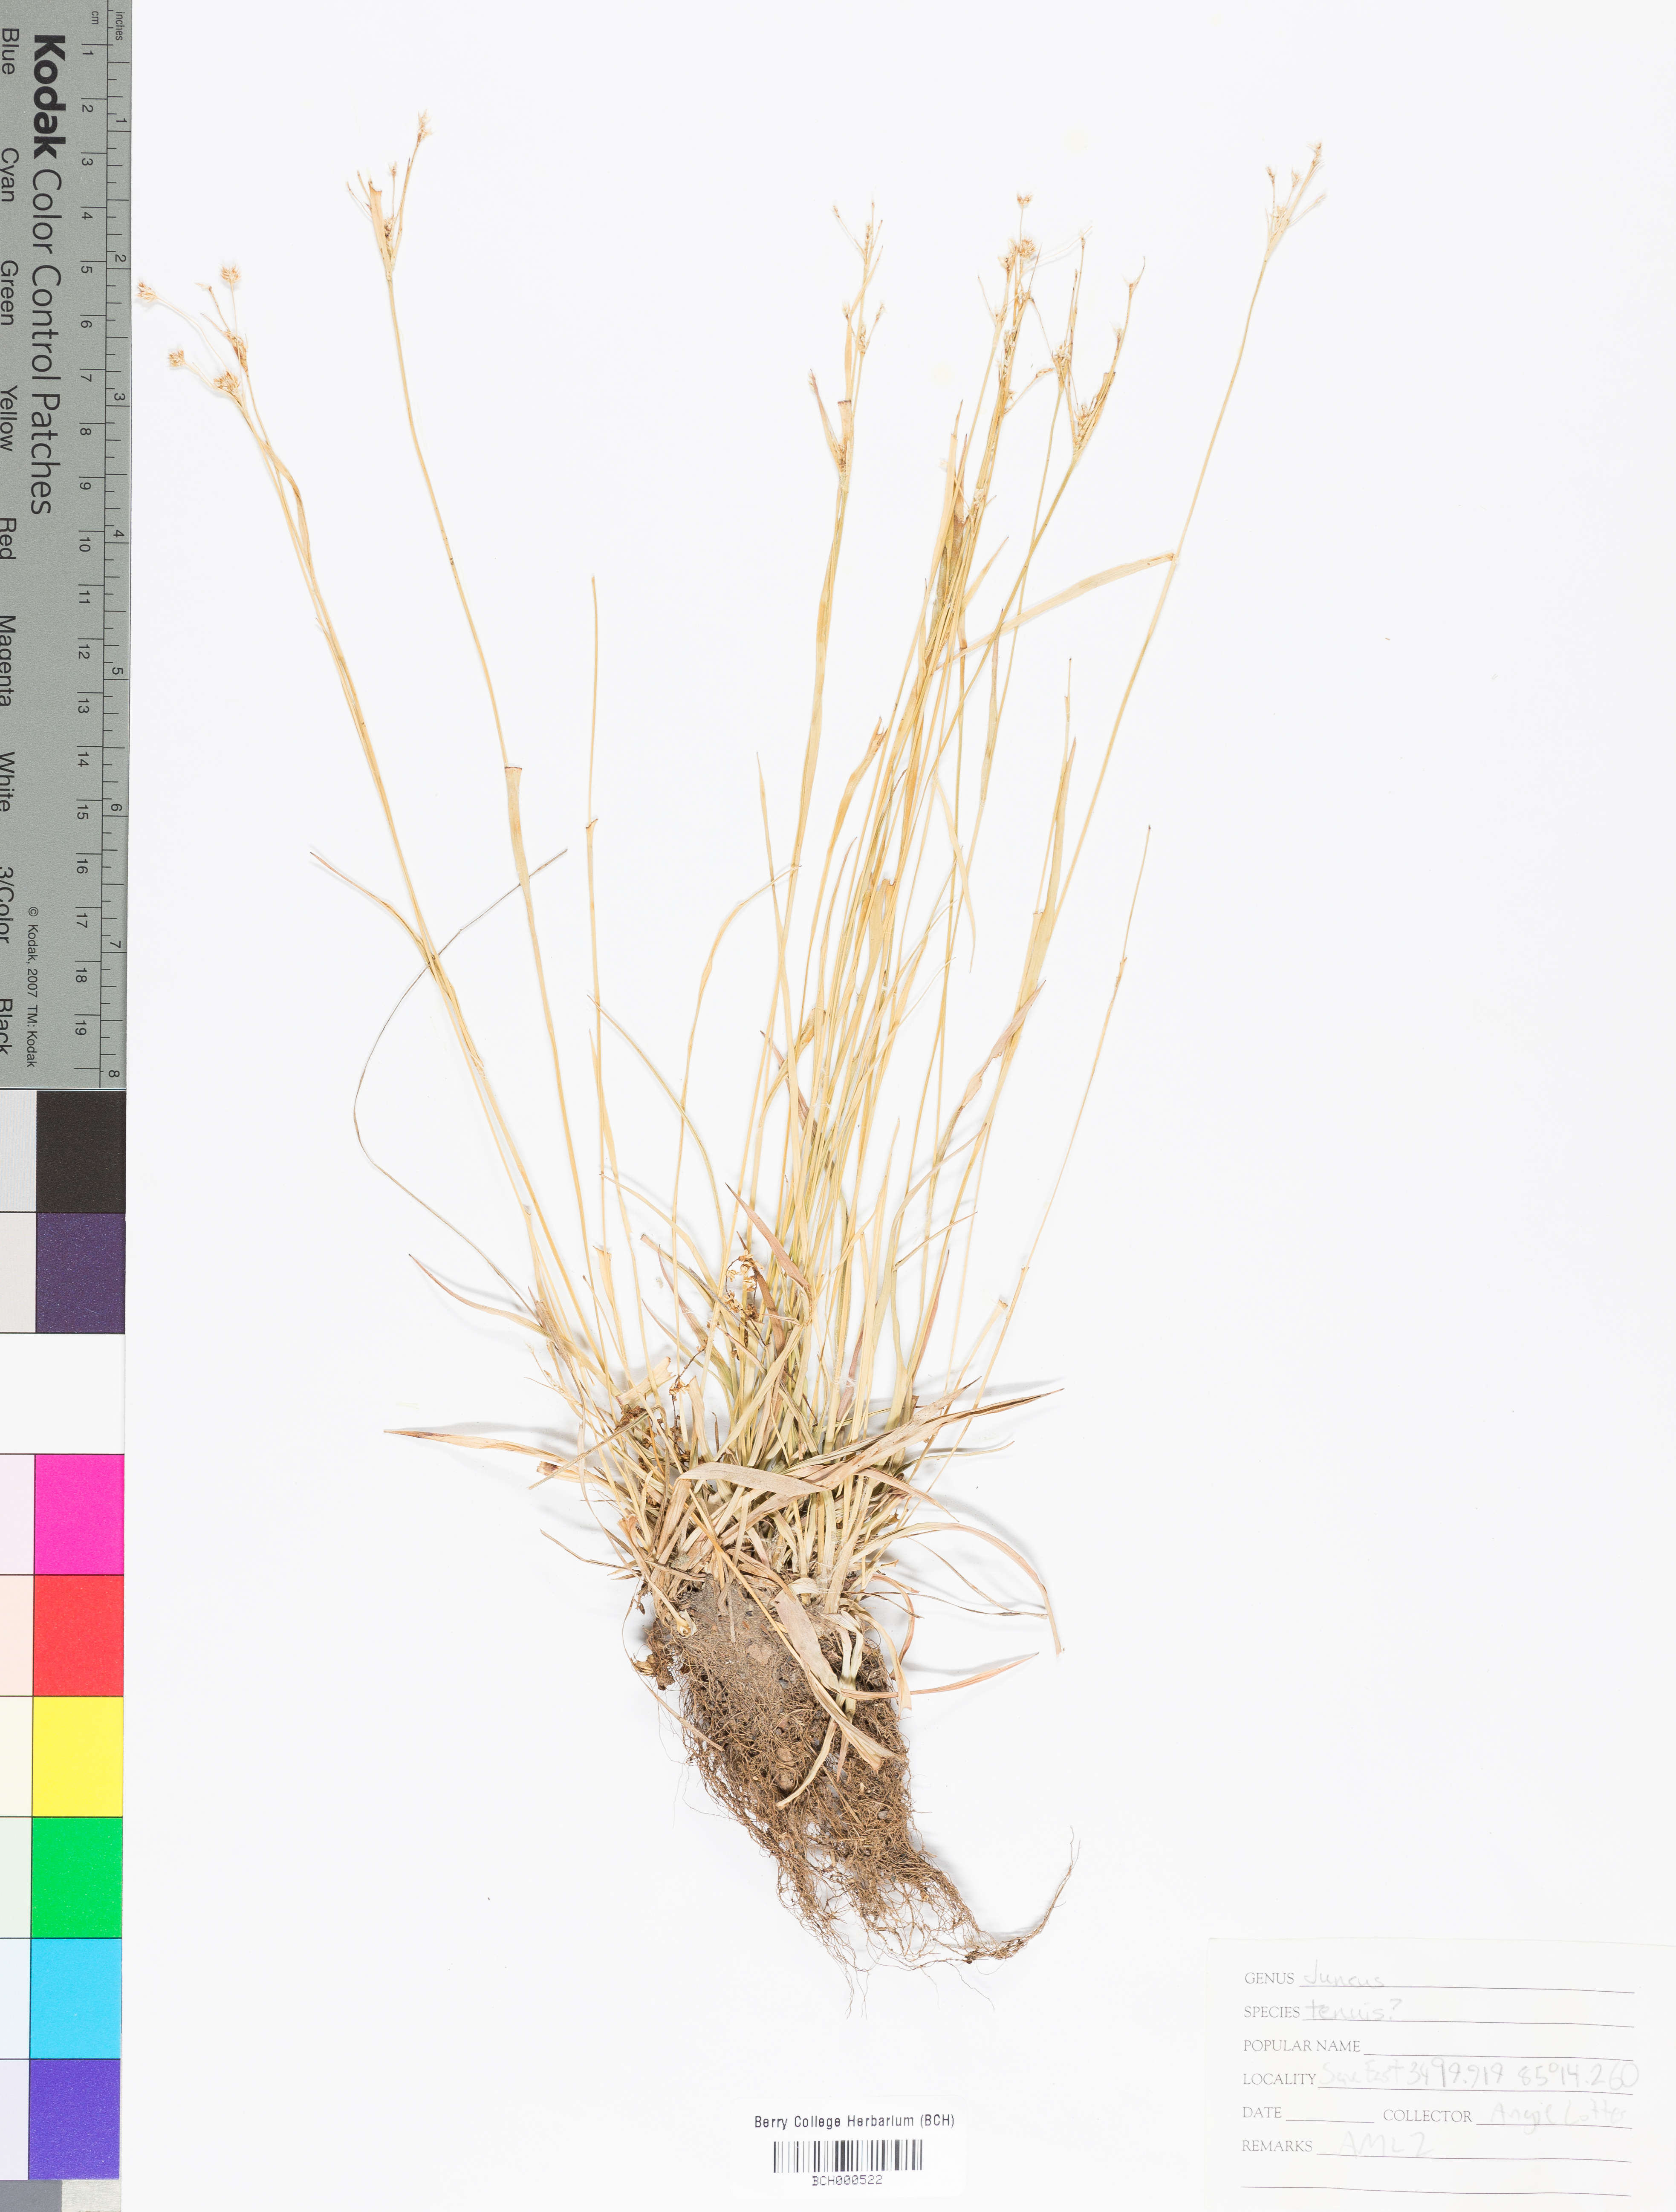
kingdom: Plantae
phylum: Tracheophyta
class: Liliopsida
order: Poales
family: Juncaceae
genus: Juncus
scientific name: Juncus tenuis
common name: Slender rush
